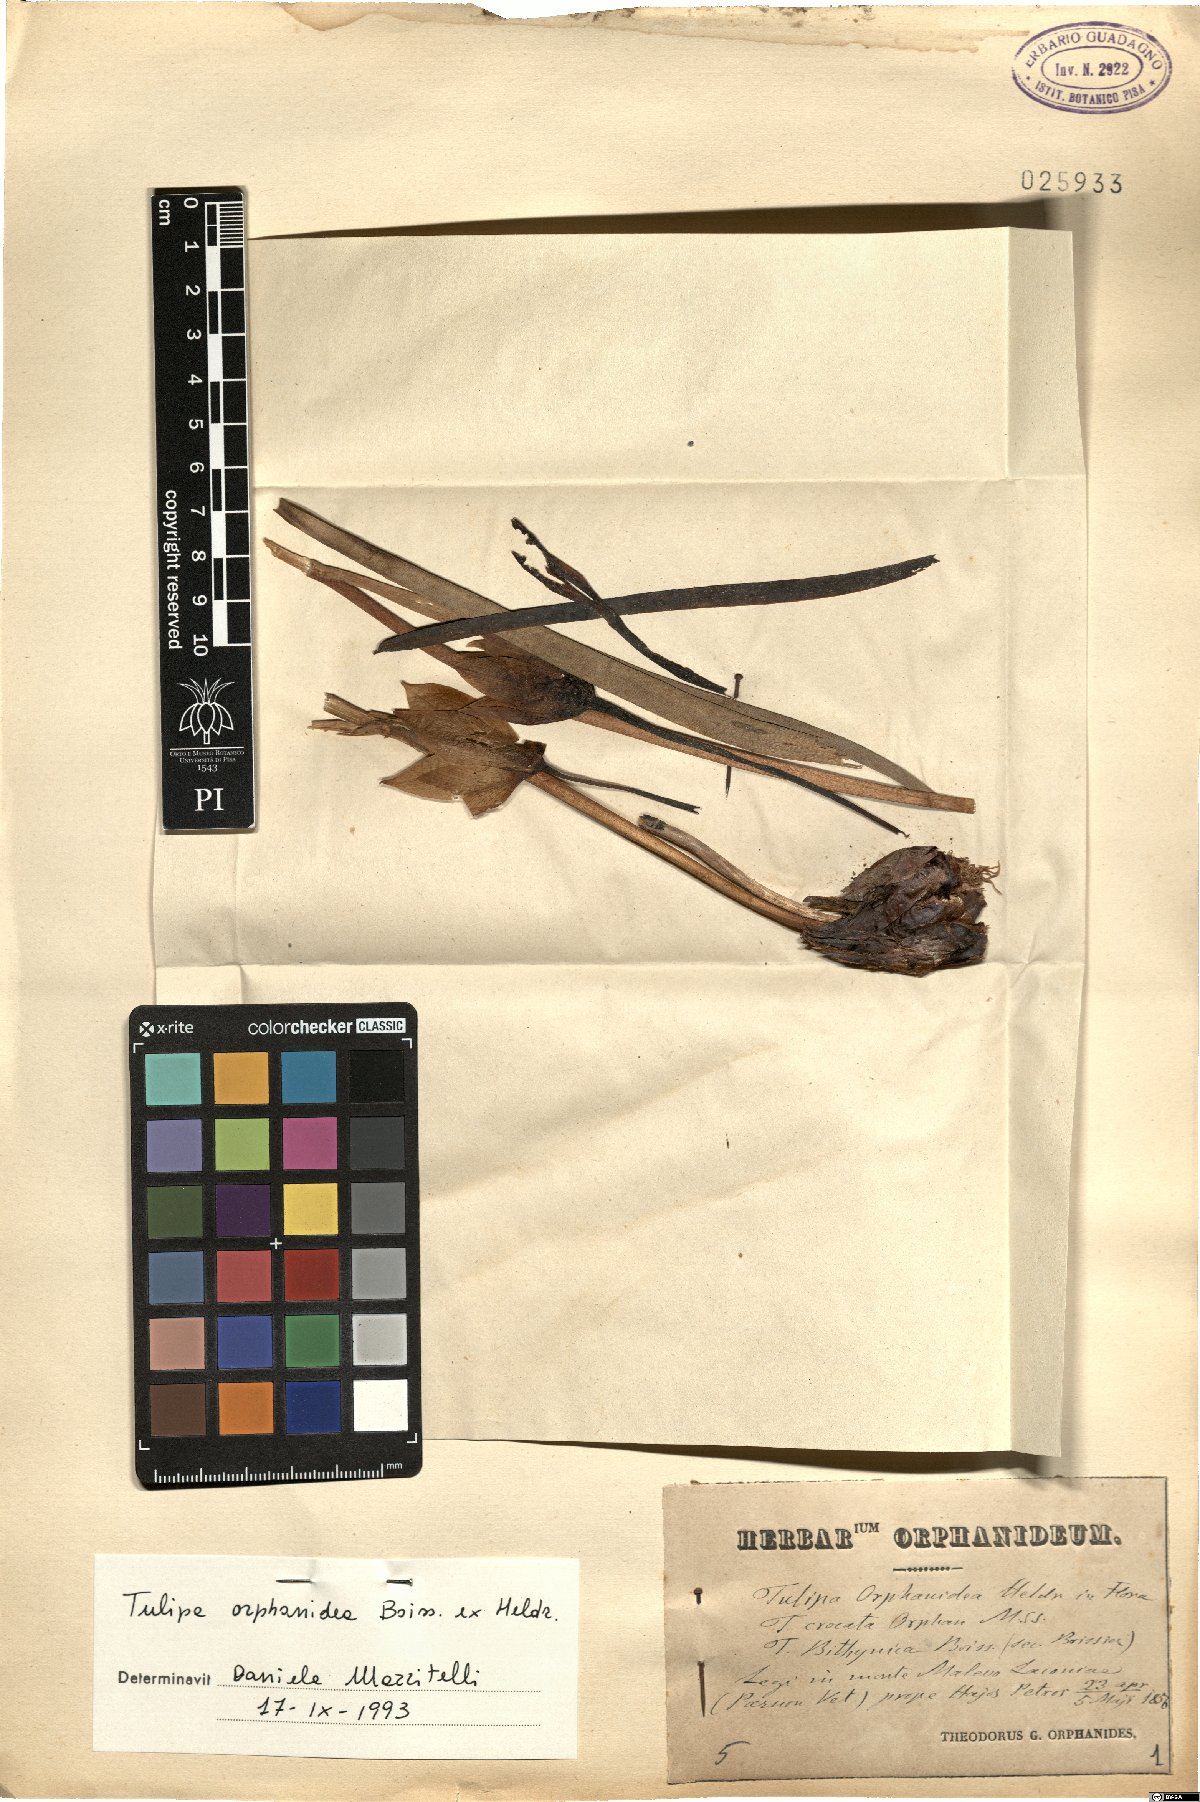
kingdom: Plantae
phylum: Tracheophyta
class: Liliopsida
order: Liliales
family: Liliaceae
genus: Tulipa
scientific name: Tulipa orphanidea
